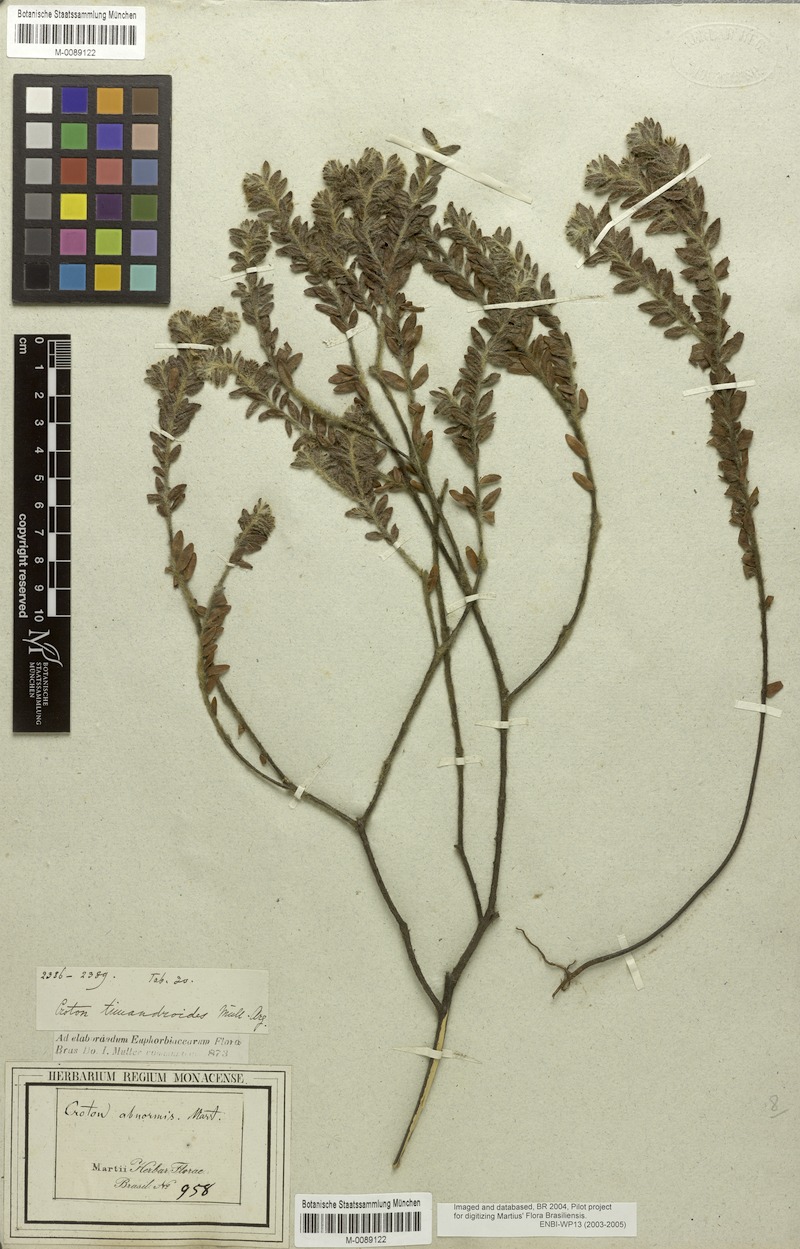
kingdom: Plantae
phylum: Tracheophyta
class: Magnoliopsida
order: Malpighiales
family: Euphorbiaceae
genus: Croton
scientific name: Croton timandroides
